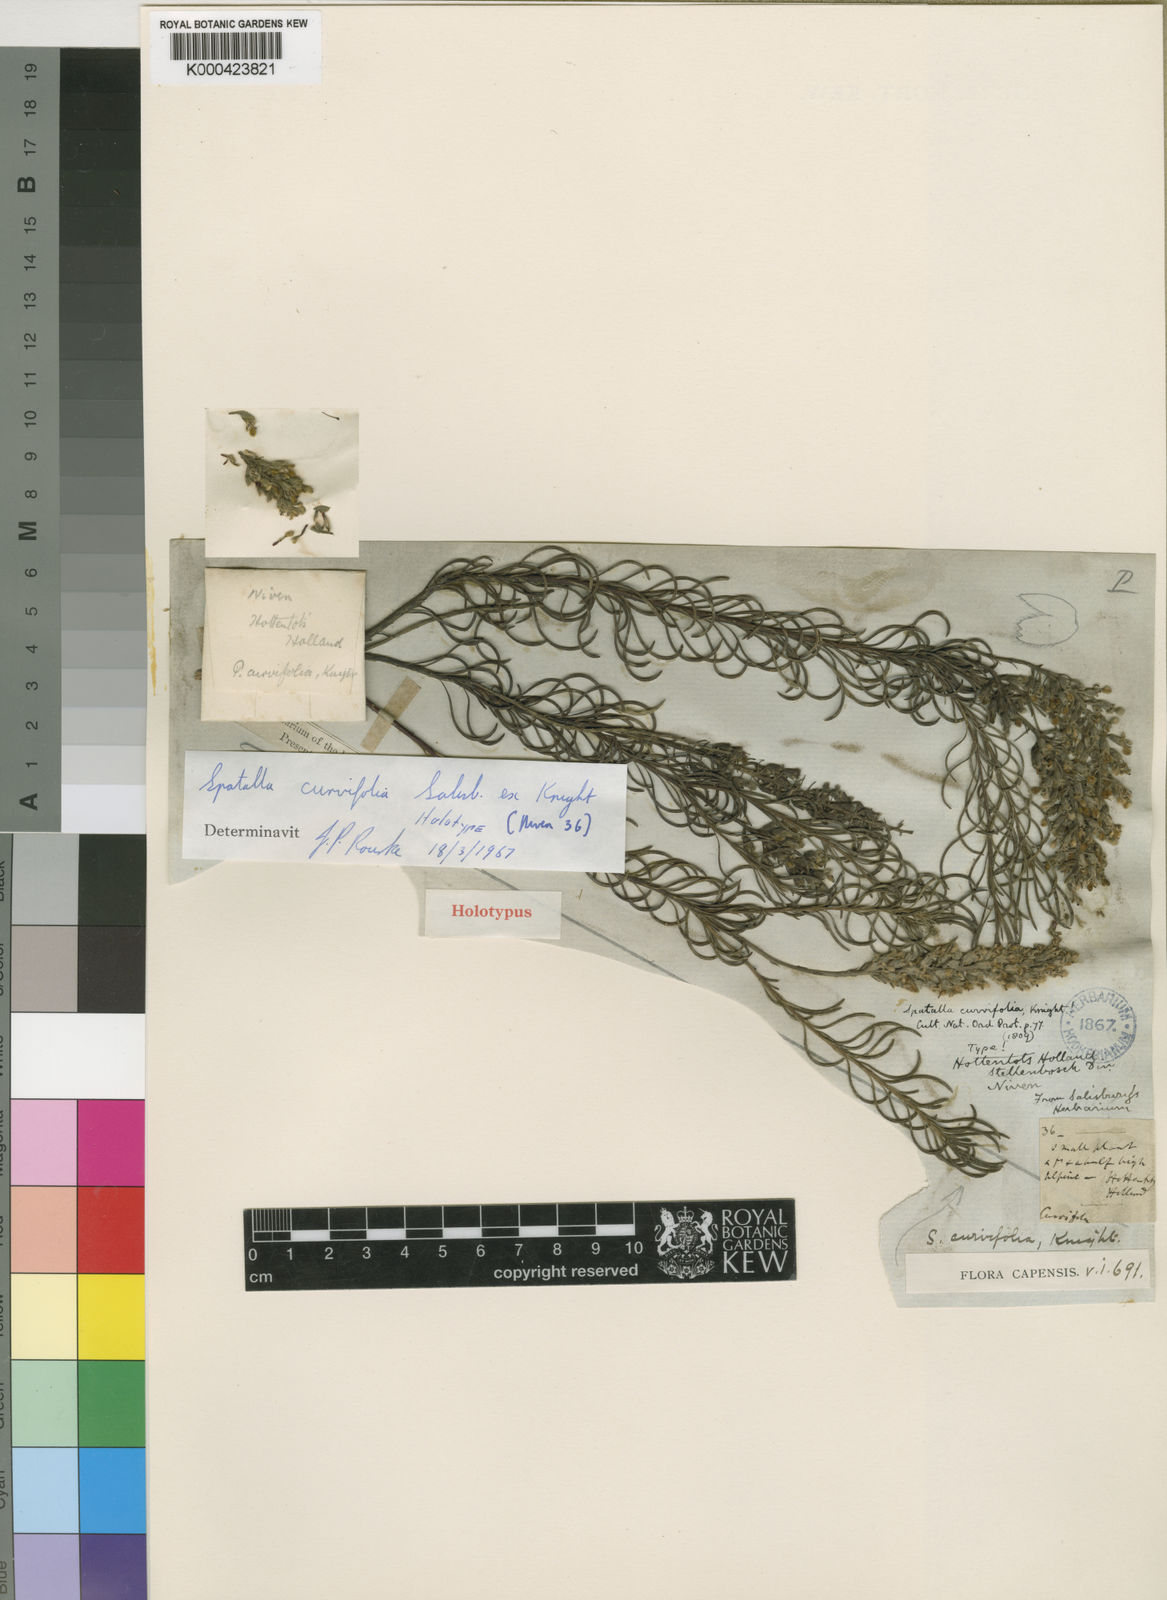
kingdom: Plantae
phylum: Tracheophyta
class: Magnoliopsida
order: Proteales
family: Proteaceae
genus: Spatalla
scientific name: Spatalla curvifolia
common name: White-stalked spoon
